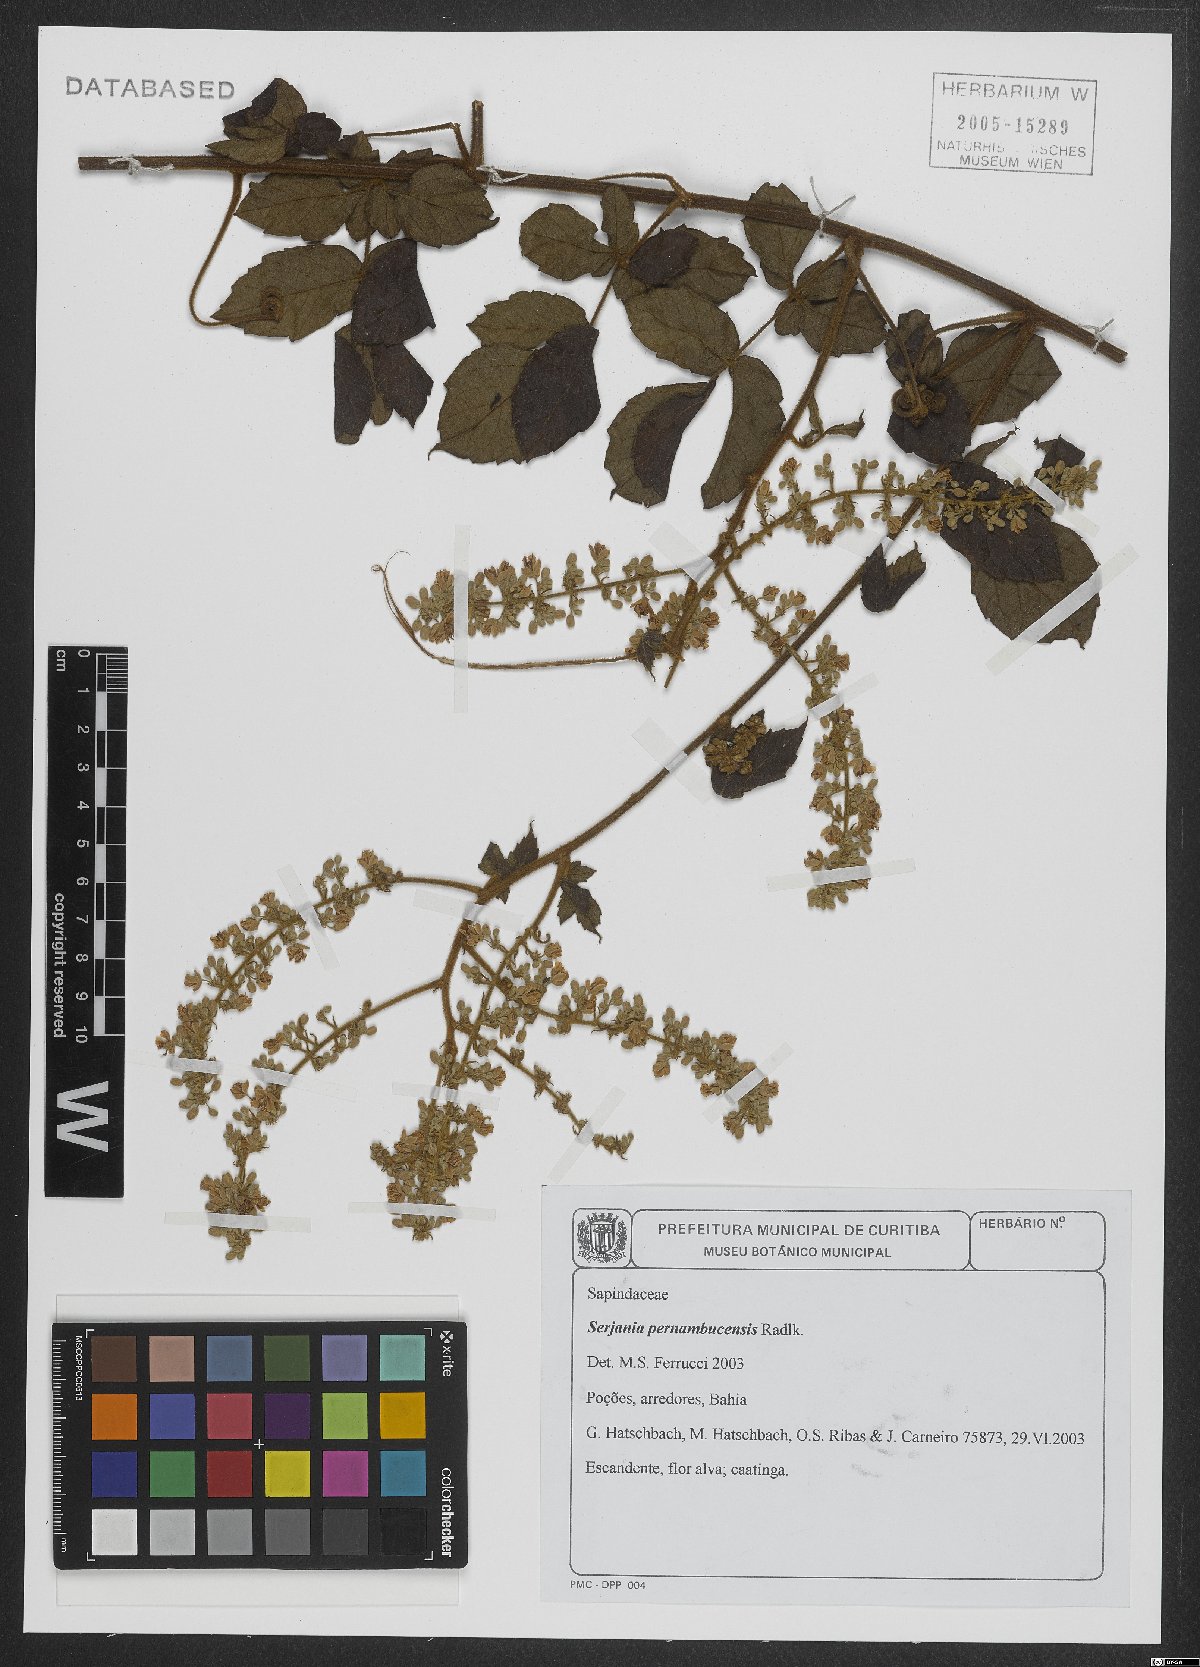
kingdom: Plantae
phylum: Tracheophyta
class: Magnoliopsida
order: Sapindales
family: Sapindaceae
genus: Serjania
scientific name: Serjania pernambucensis
